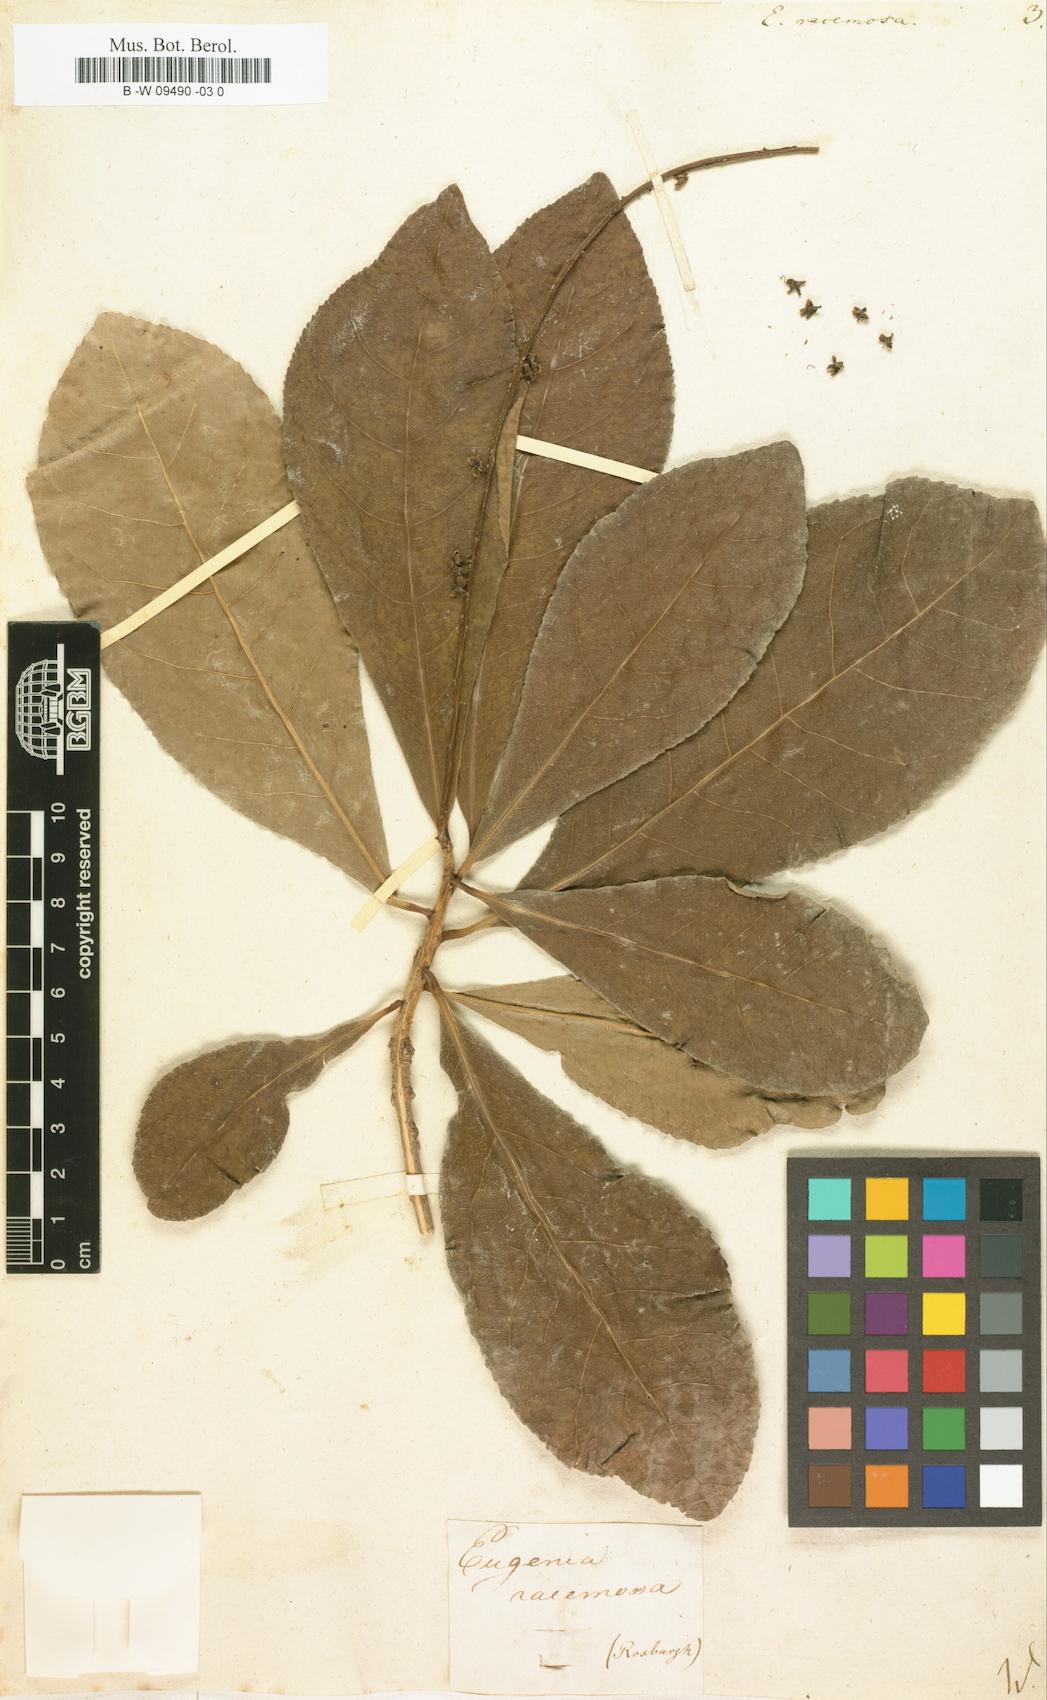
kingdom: Plantae
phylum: Tracheophyta
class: Magnoliopsida
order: Ericales
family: Lecythidaceae
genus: Barringtonia
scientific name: Barringtonia racemosa
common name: Brackwater mangrove
